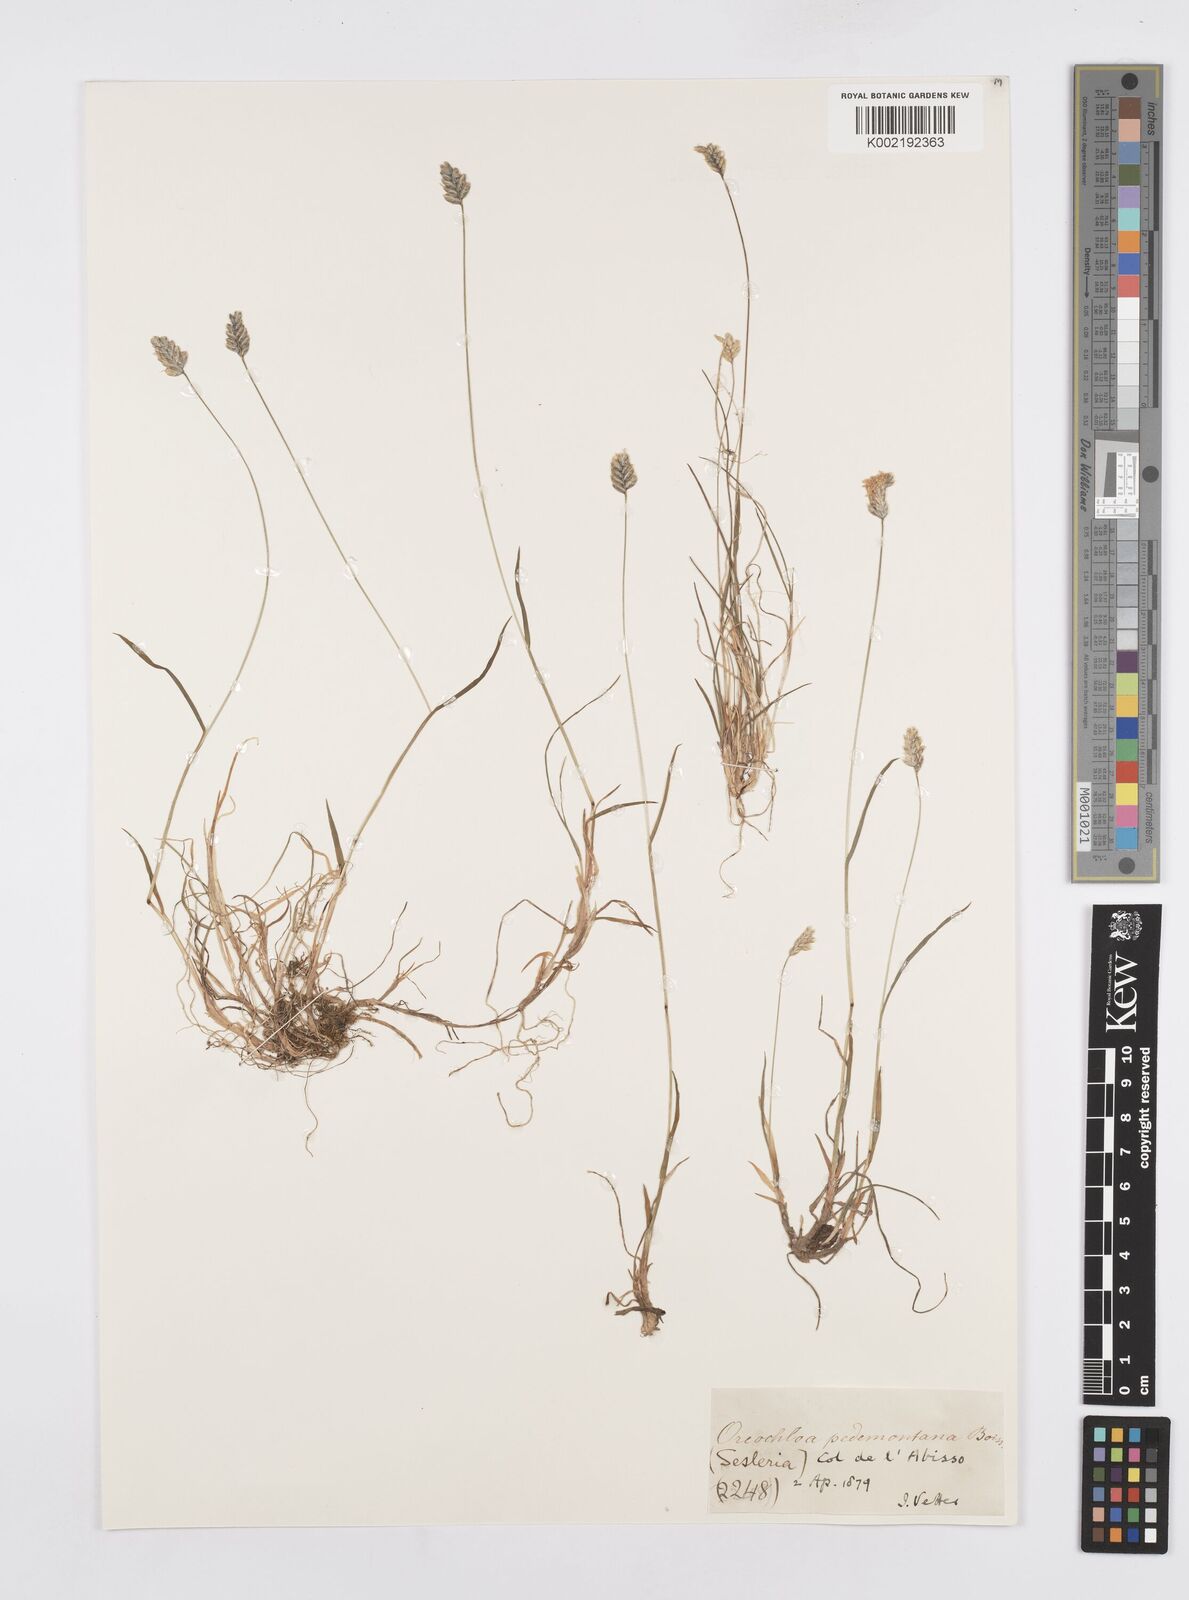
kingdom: Plantae
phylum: Tracheophyta
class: Liliopsida
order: Poales
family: Poaceae
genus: Oreochloa
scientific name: Oreochloa seslerioides
